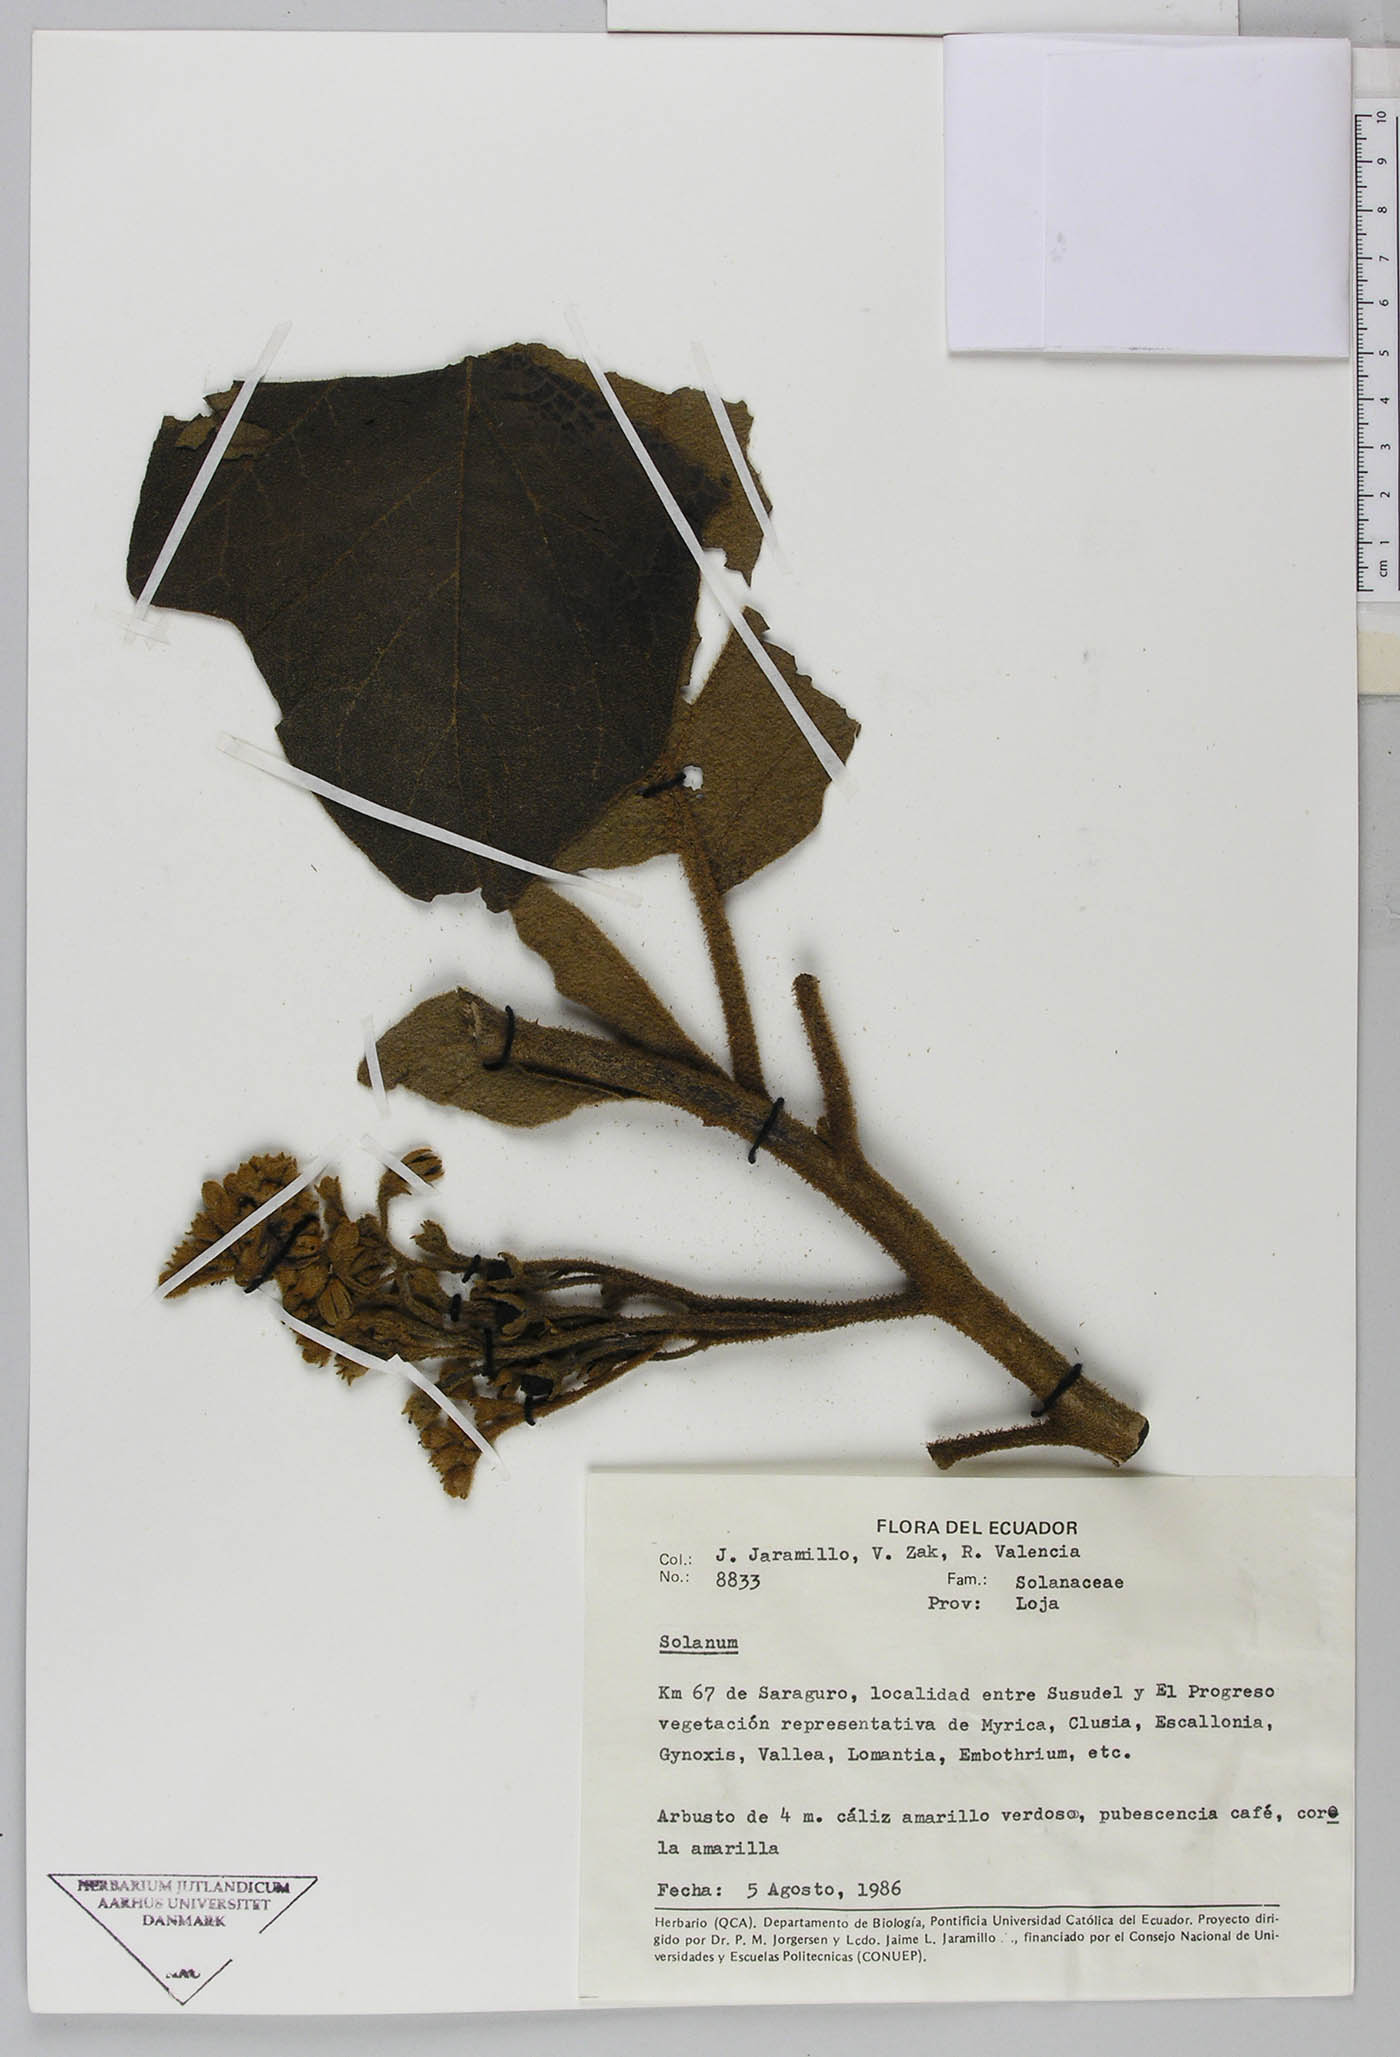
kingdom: Plantae
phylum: Tracheophyta
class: Magnoliopsida
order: Solanales
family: Solanaceae
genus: Solanum
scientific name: Solanum
